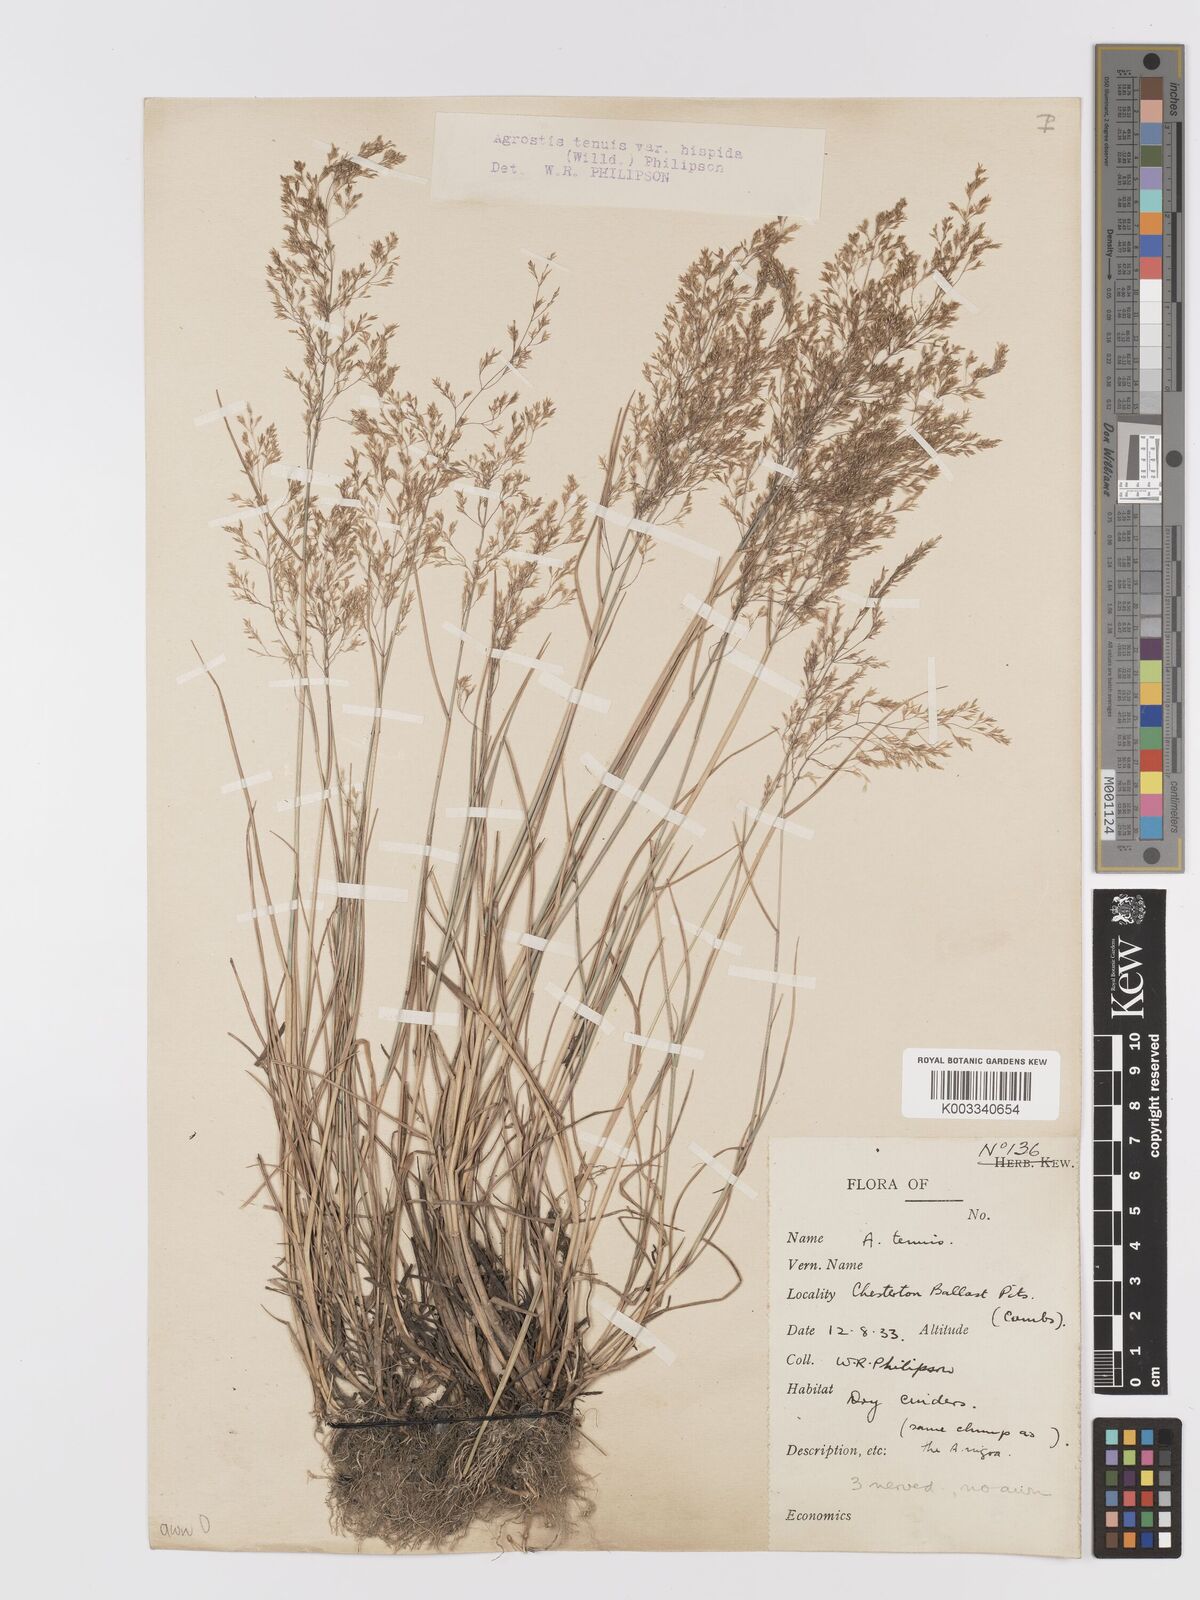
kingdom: Plantae
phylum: Tracheophyta
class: Liliopsida
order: Poales
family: Poaceae
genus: Agrostis
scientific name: Agrostis capillaris
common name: Colonial bentgrass
